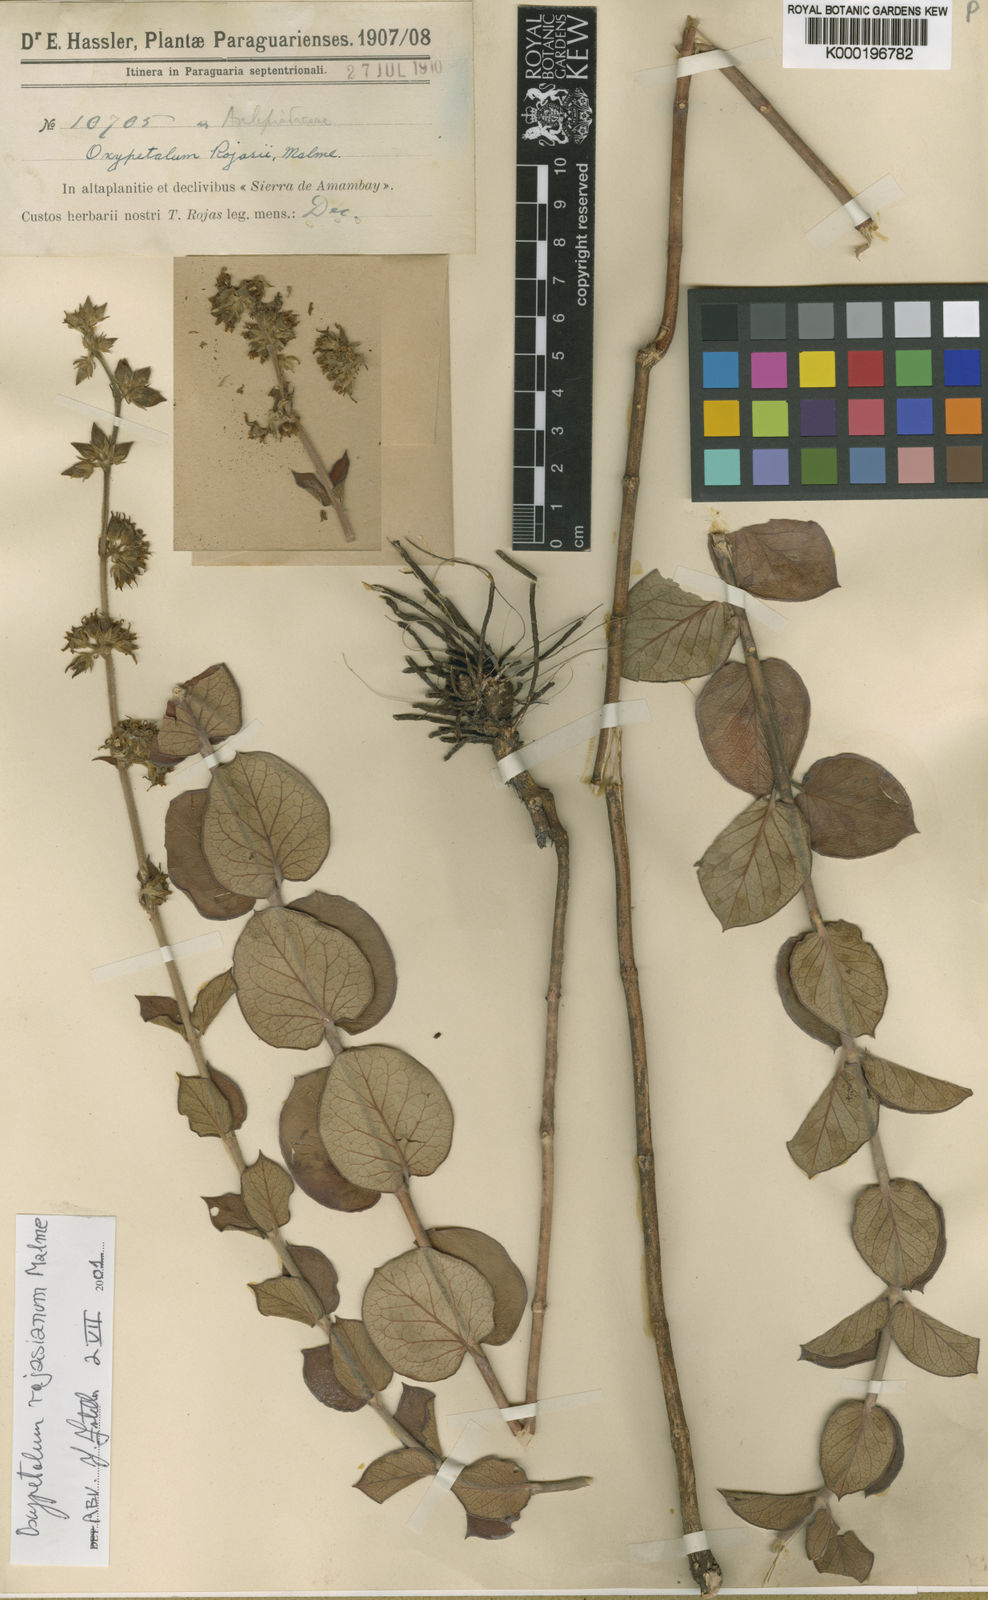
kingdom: Plantae
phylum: Tracheophyta
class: Magnoliopsida
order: Gentianales
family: Apocynaceae
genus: Oxypetalum
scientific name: Oxypetalum rojasianum
